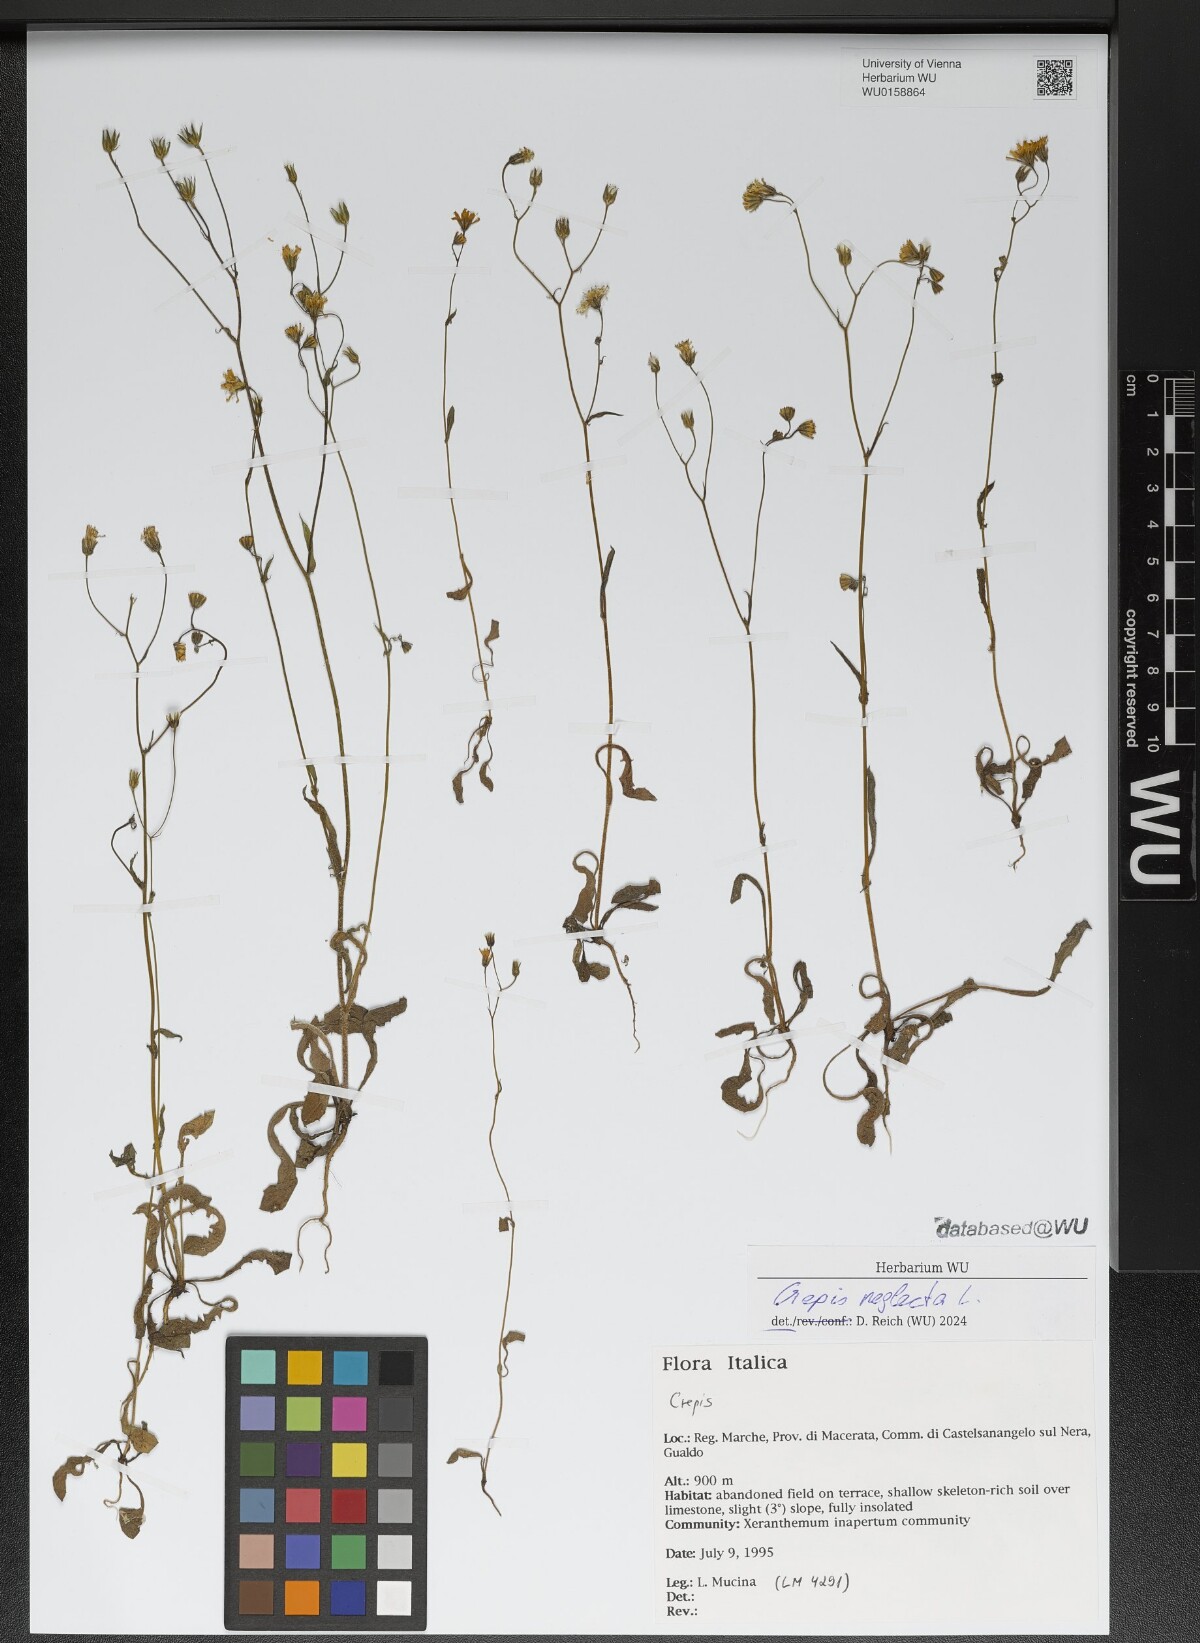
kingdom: Plantae
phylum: Tracheophyta
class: Magnoliopsida
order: Asterales
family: Asteraceae
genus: Crepis
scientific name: Crepis neglecta
